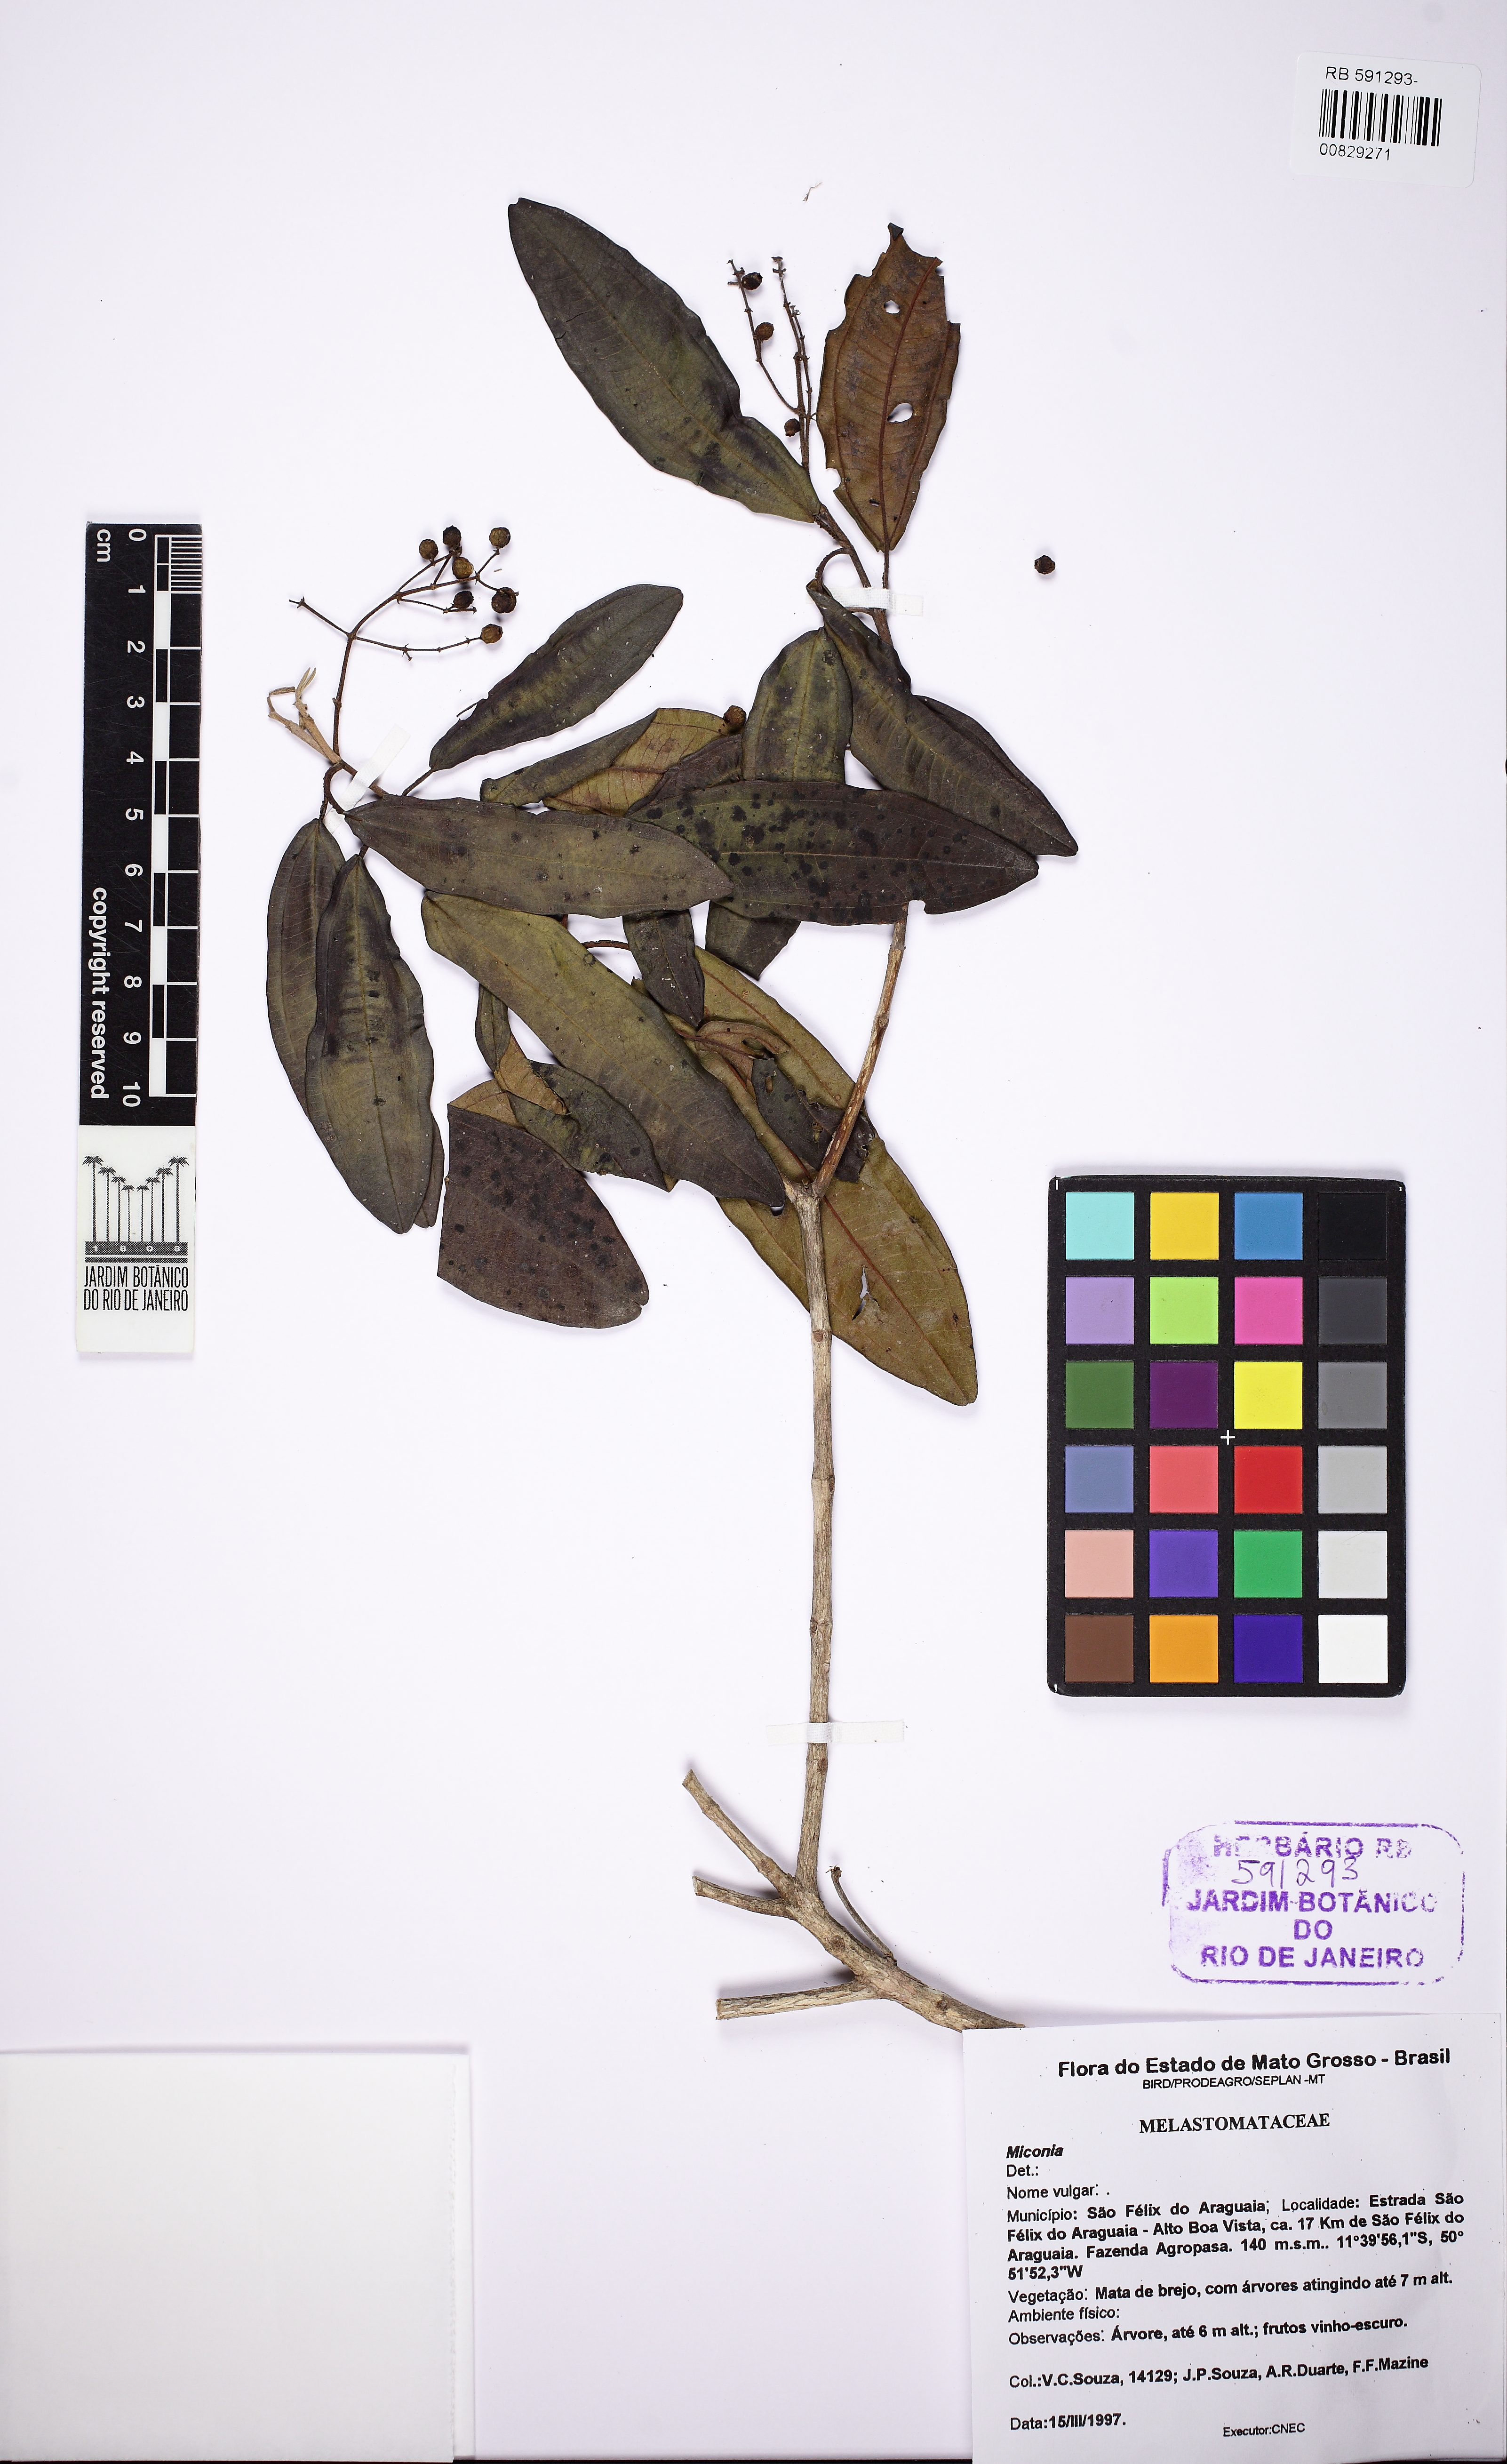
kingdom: Plantae
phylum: Tracheophyta
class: Magnoliopsida
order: Myrtales
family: Melastomataceae
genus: Miconia
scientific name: Miconia
